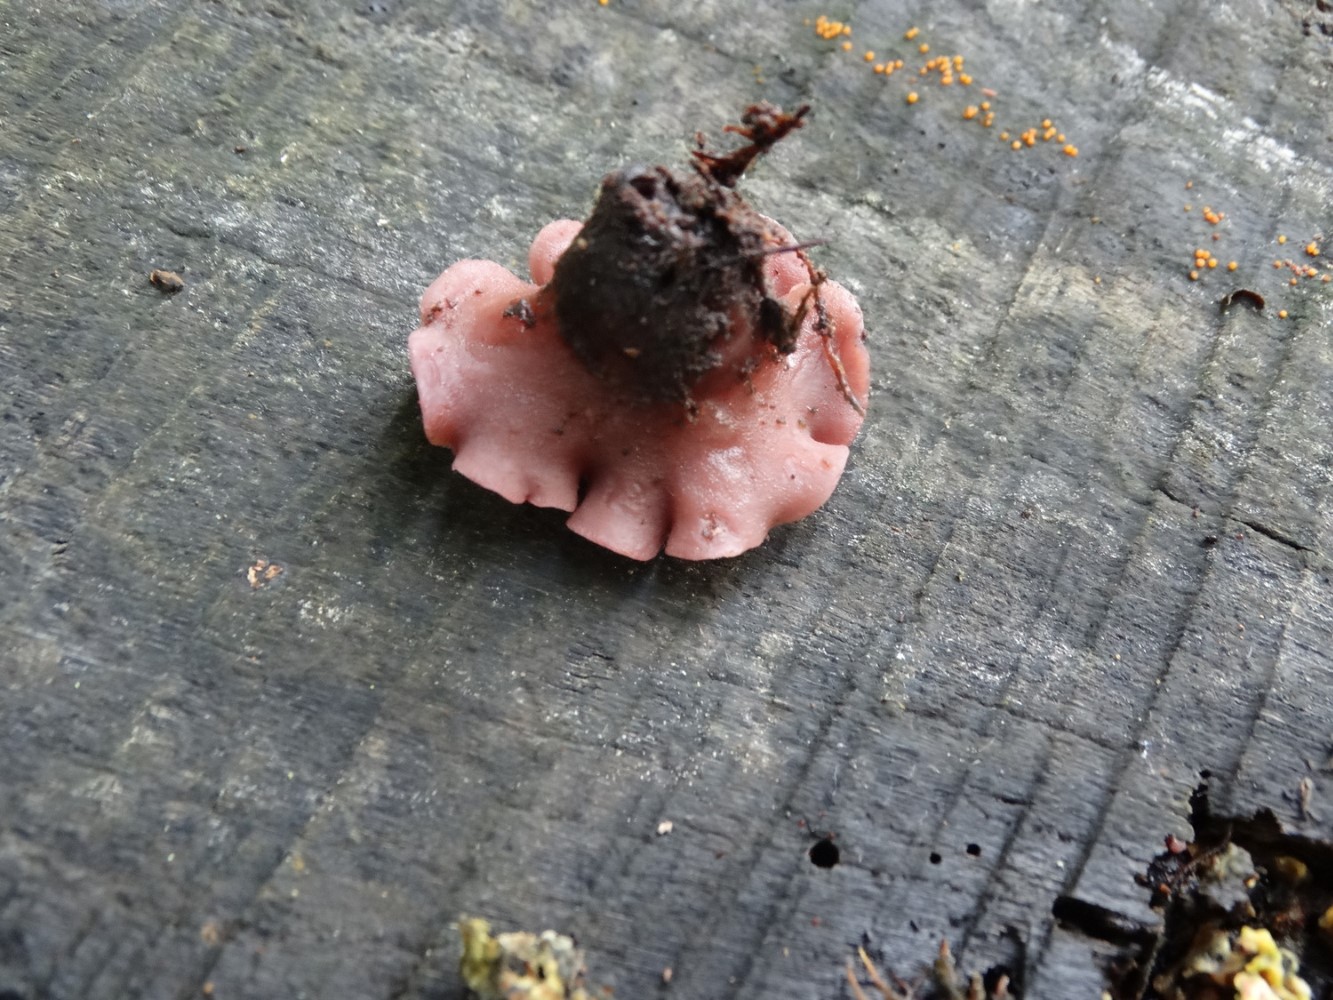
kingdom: Fungi
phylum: Ascomycota
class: Leotiomycetes
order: Helotiales
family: Gelatinodiscaceae
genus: Ascocoryne
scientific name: Ascocoryne cylichnium
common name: stor sejskive
